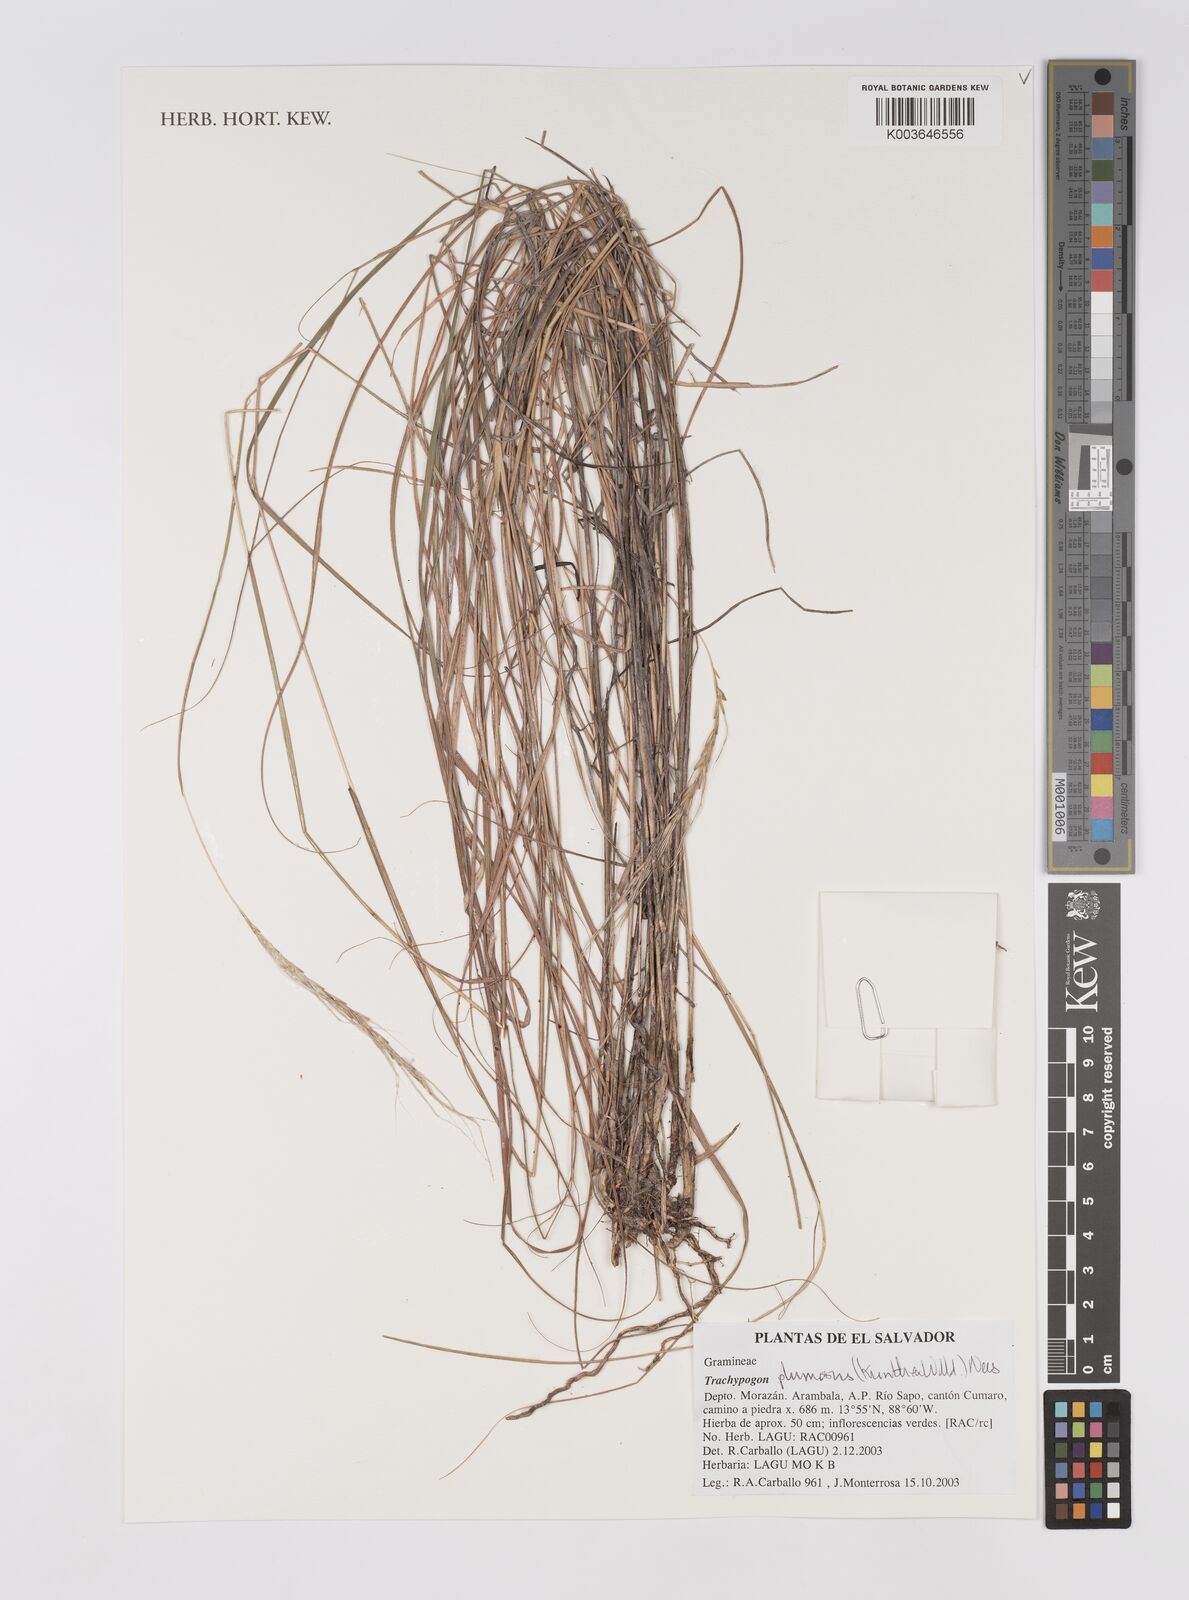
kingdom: Plantae
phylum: Tracheophyta
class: Liliopsida
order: Poales
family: Poaceae
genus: Trachypogon
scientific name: Trachypogon spicatus
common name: Crinkle-awn
